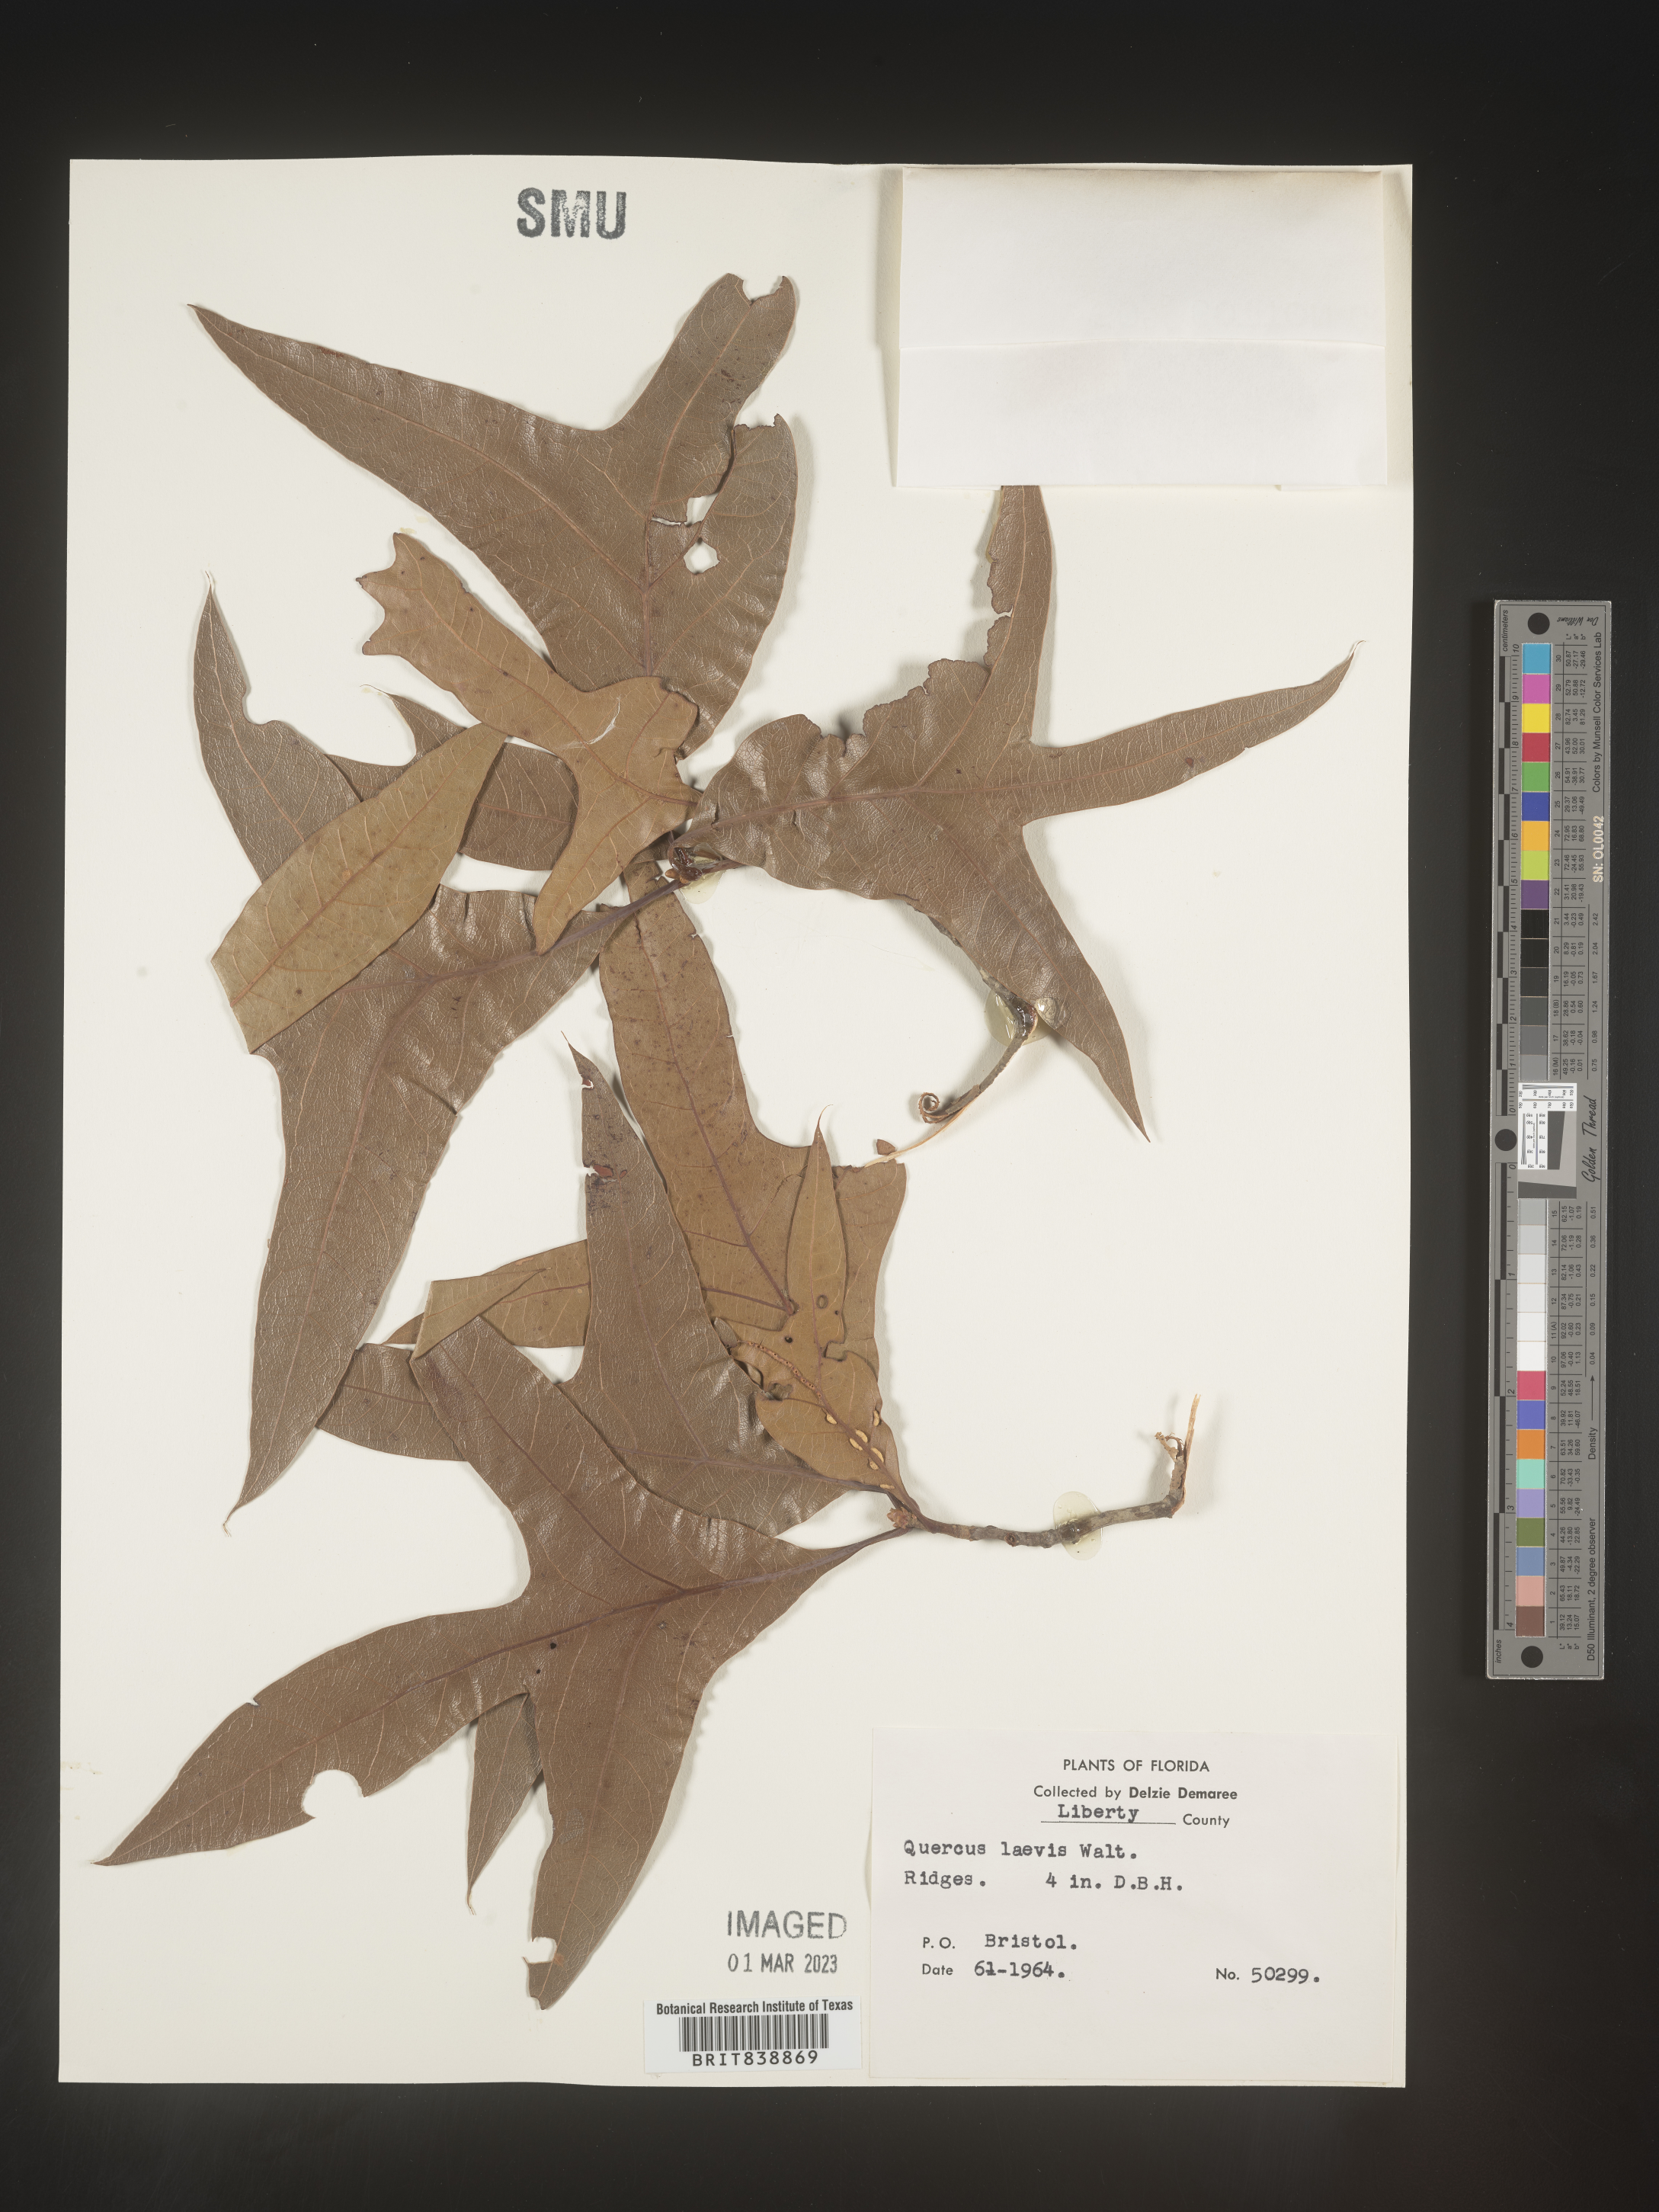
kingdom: Plantae
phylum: Tracheophyta
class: Magnoliopsida
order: Fagales
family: Fagaceae
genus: Quercus
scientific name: Quercus laevis
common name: Turkey oak
